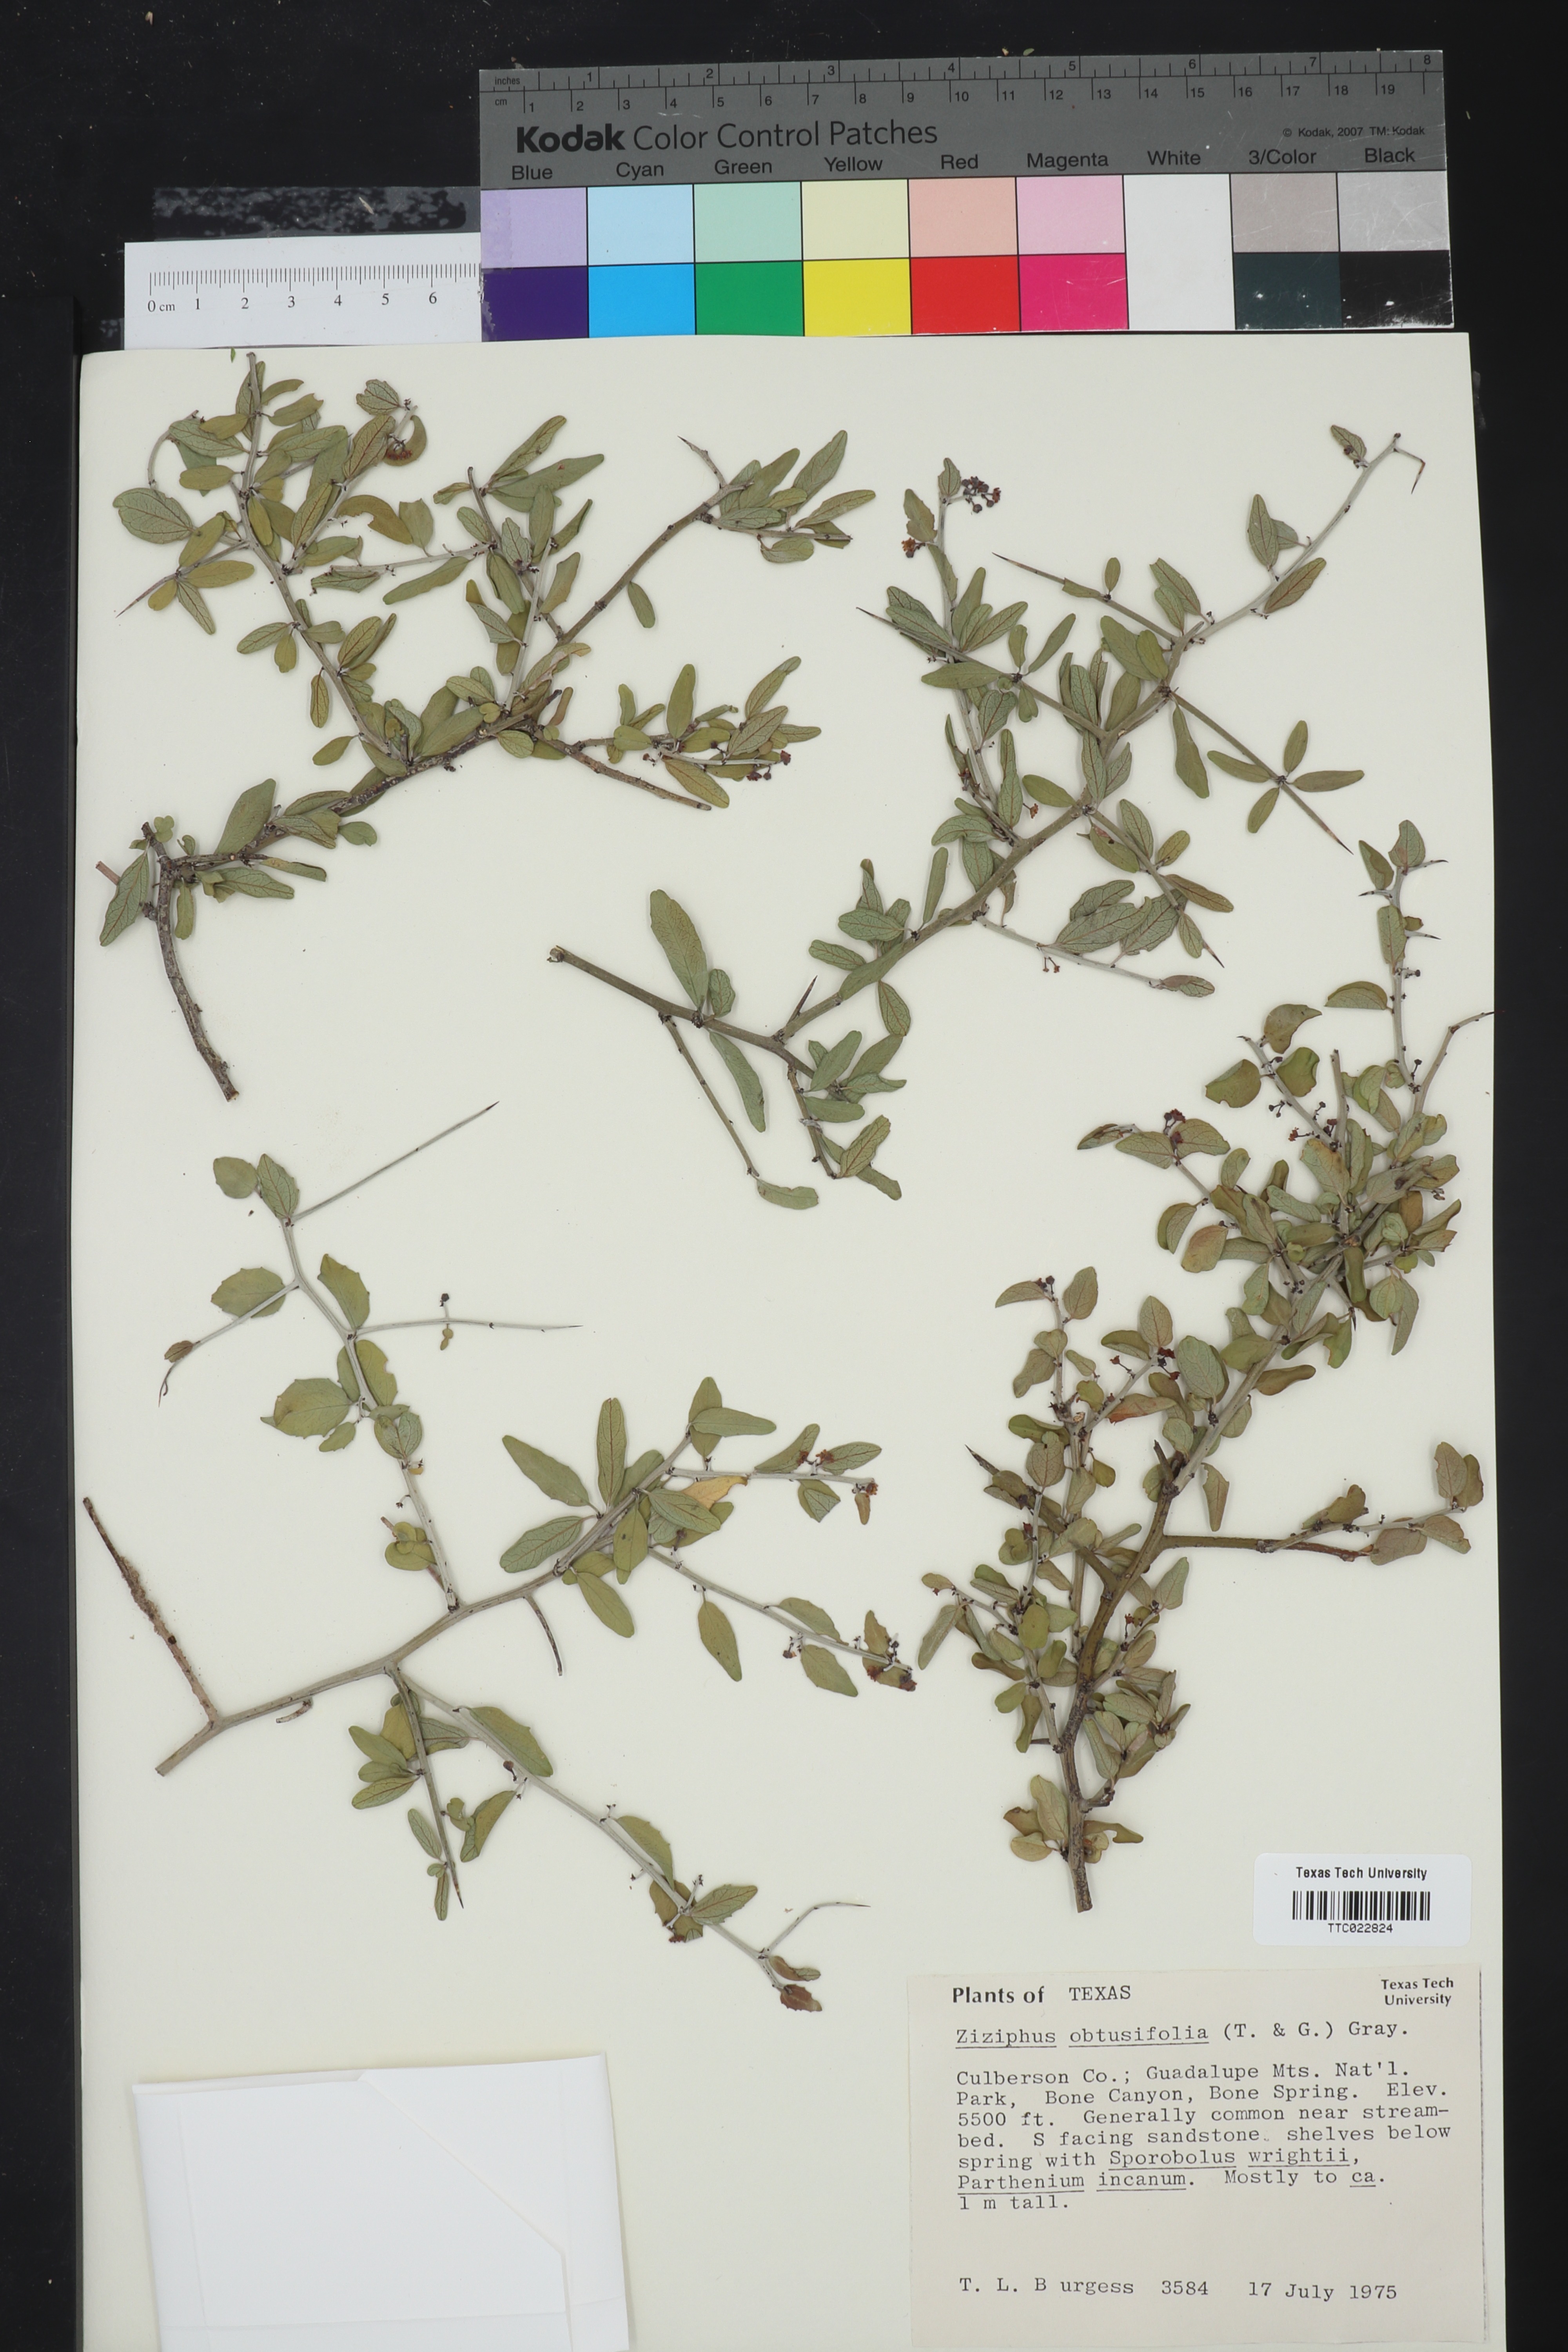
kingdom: Plantae
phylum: Tracheophyta
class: Magnoliopsida
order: Rosales
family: Rhamnaceae
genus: Sarcomphalus
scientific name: Sarcomphalus obtusifolius
